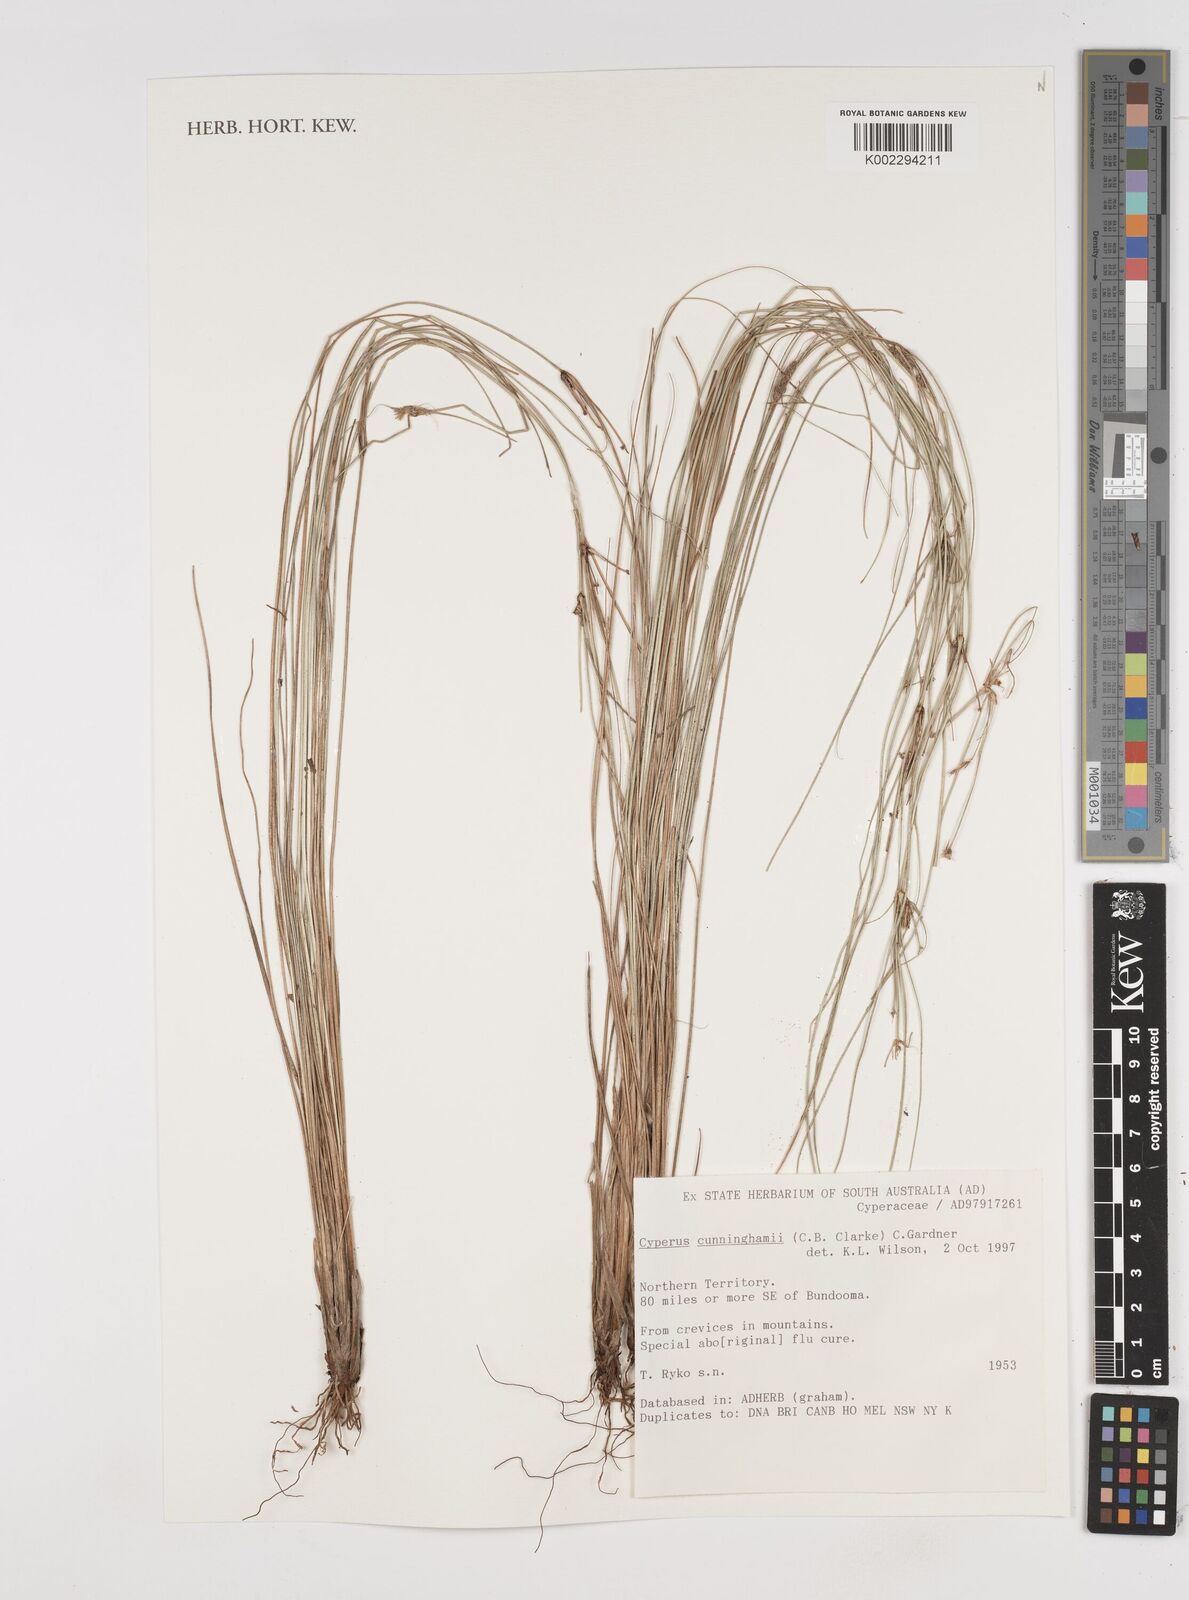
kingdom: Plantae
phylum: Tracheophyta
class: Liliopsida
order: Poales
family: Cyperaceae
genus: Cyperus
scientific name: Cyperus cunninghamii
